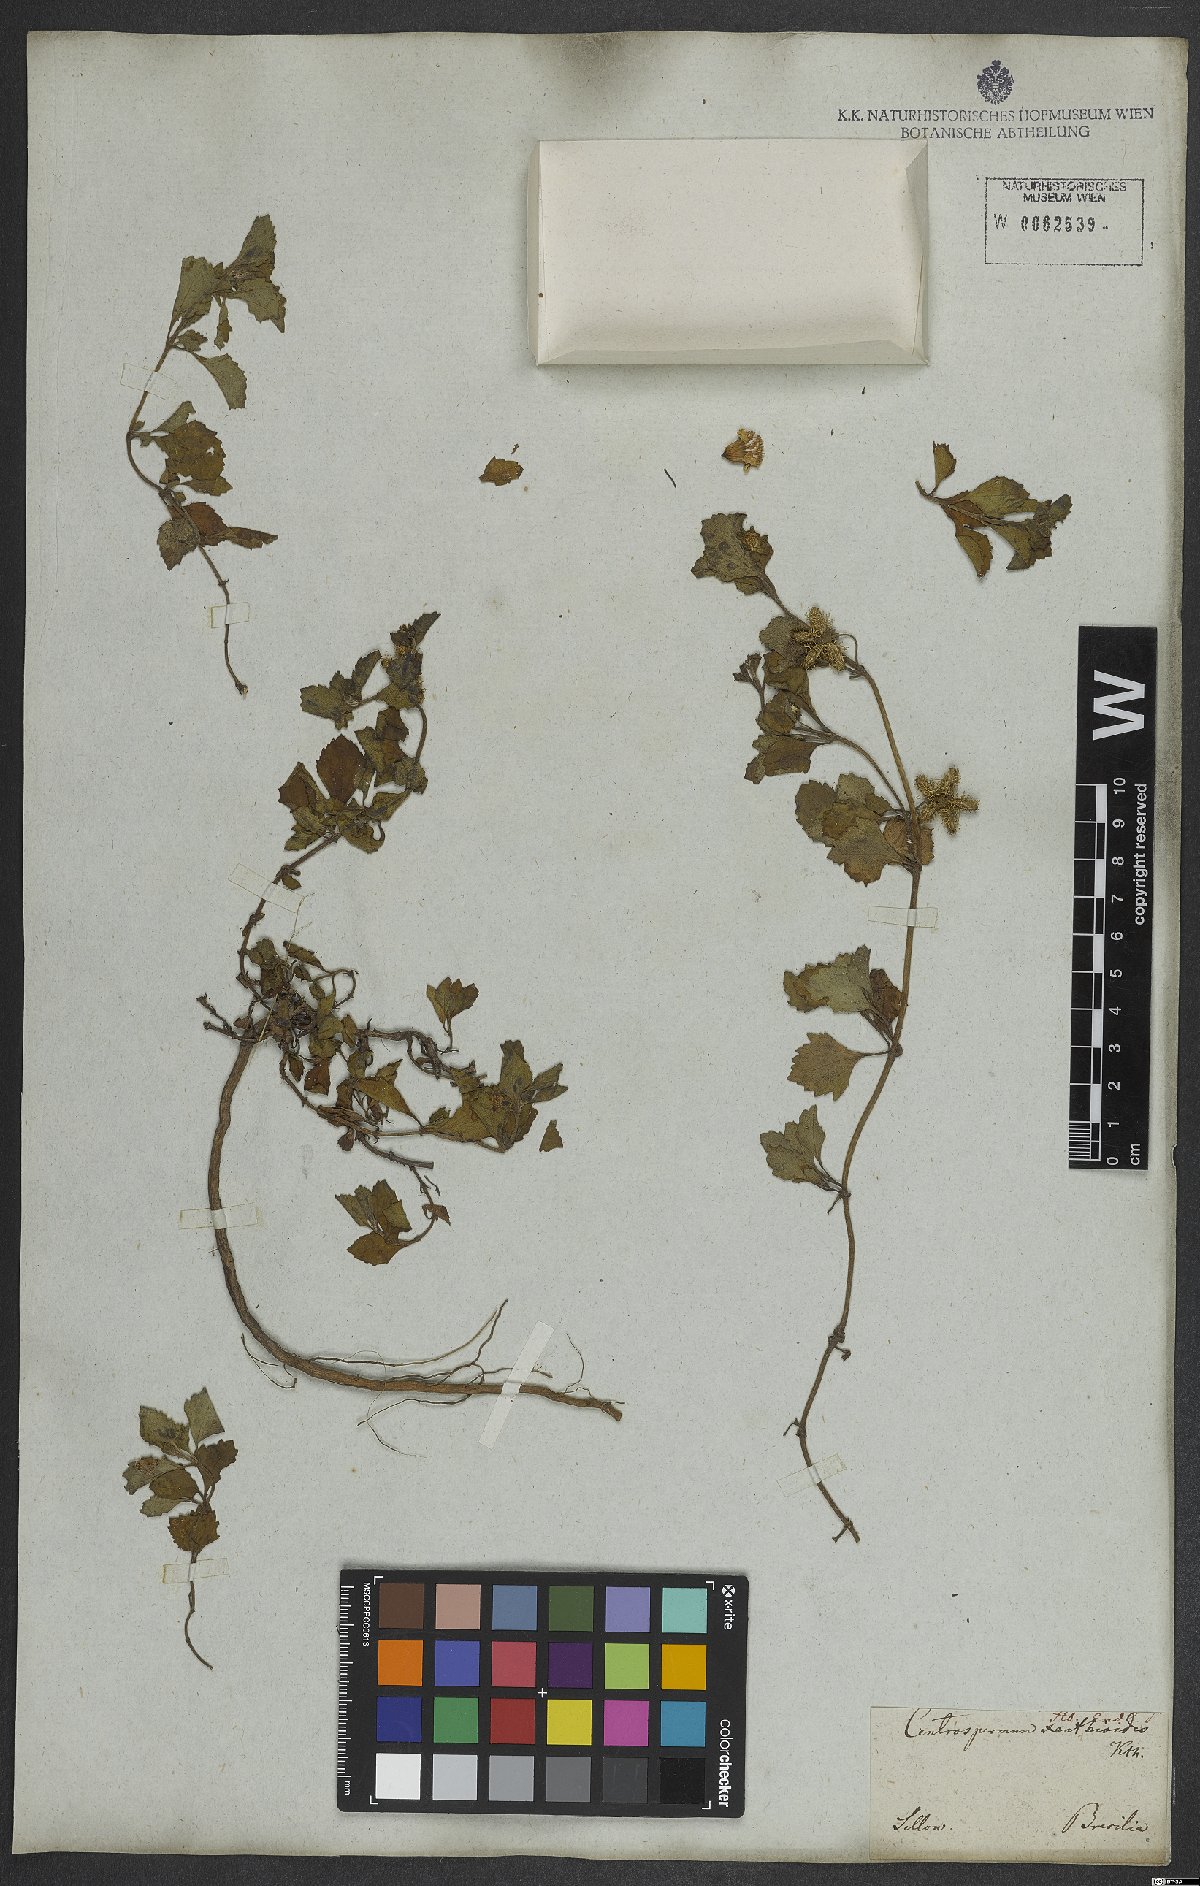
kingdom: Plantae
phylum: Tracheophyta
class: Magnoliopsida
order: Asterales
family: Asteraceae
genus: Acanthospermum
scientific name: Acanthospermum australe
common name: Paraguayan starbur
